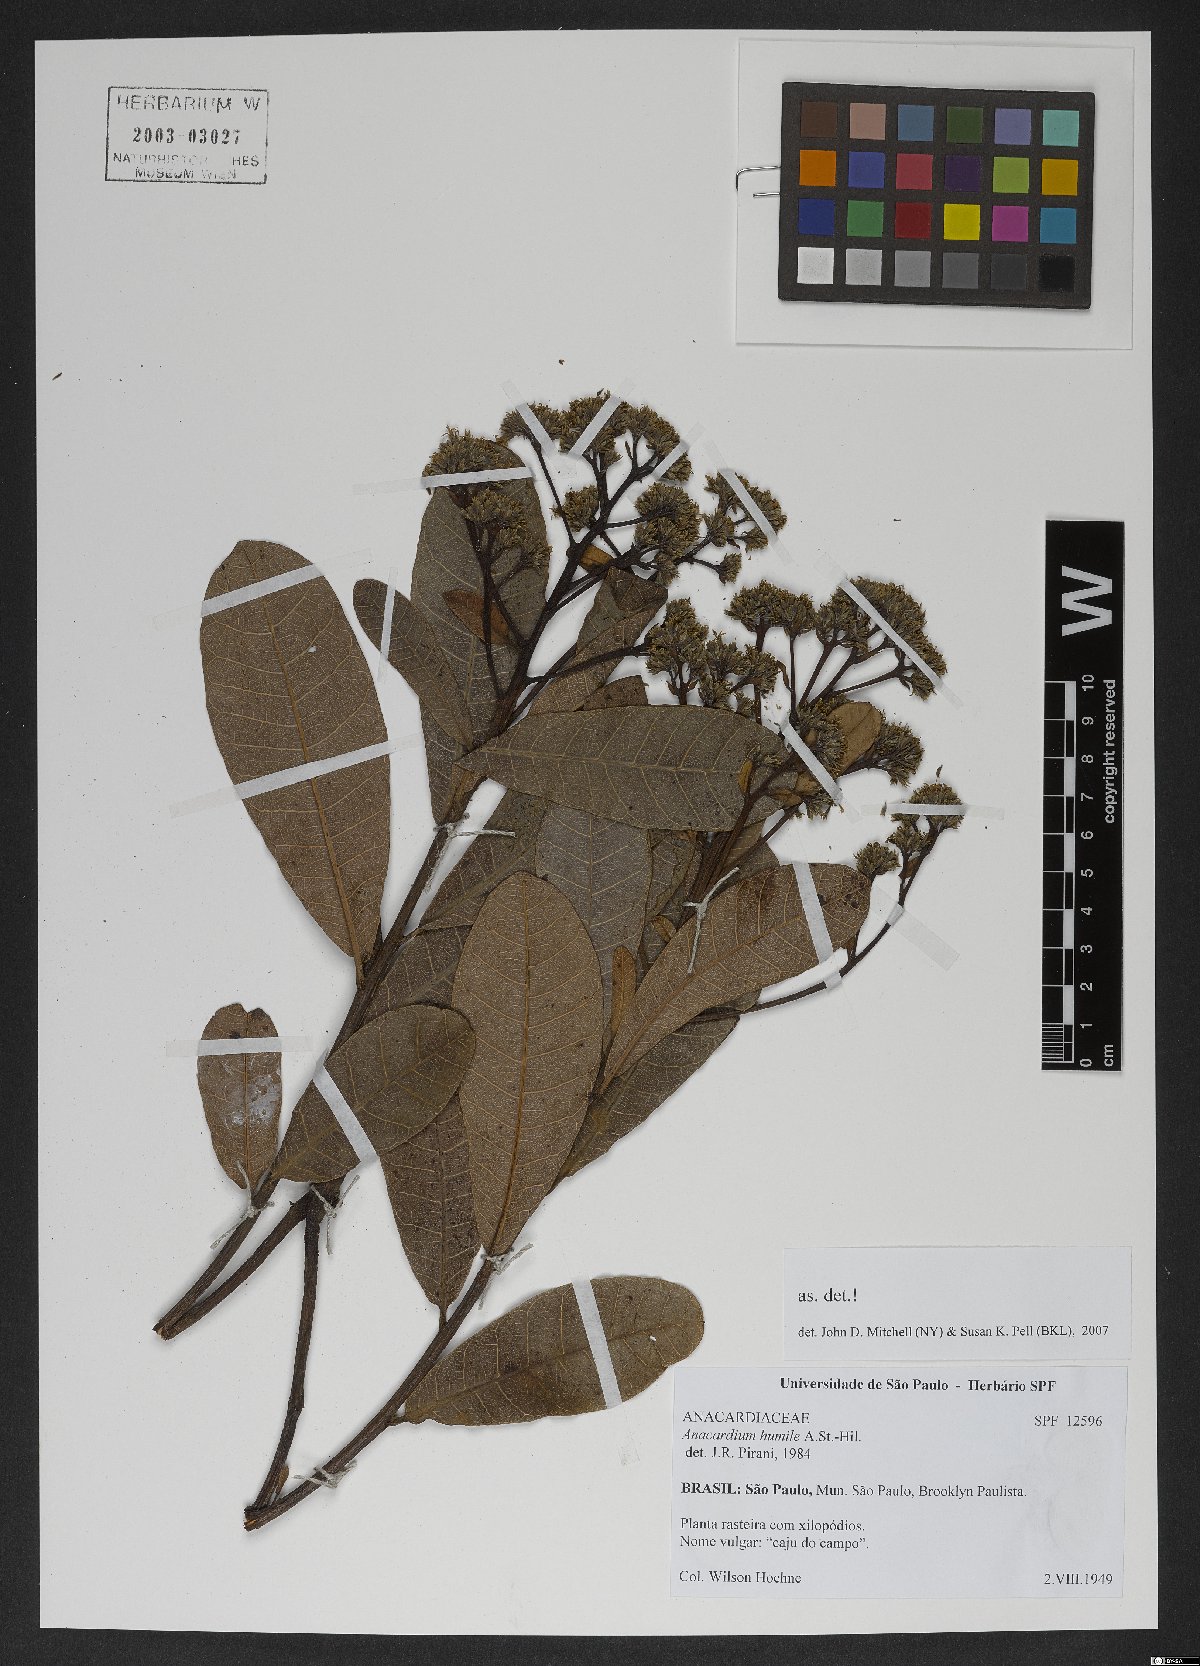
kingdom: Plantae
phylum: Tracheophyta
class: Magnoliopsida
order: Sapindales
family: Anacardiaceae
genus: Anacardium
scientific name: Anacardium humile
